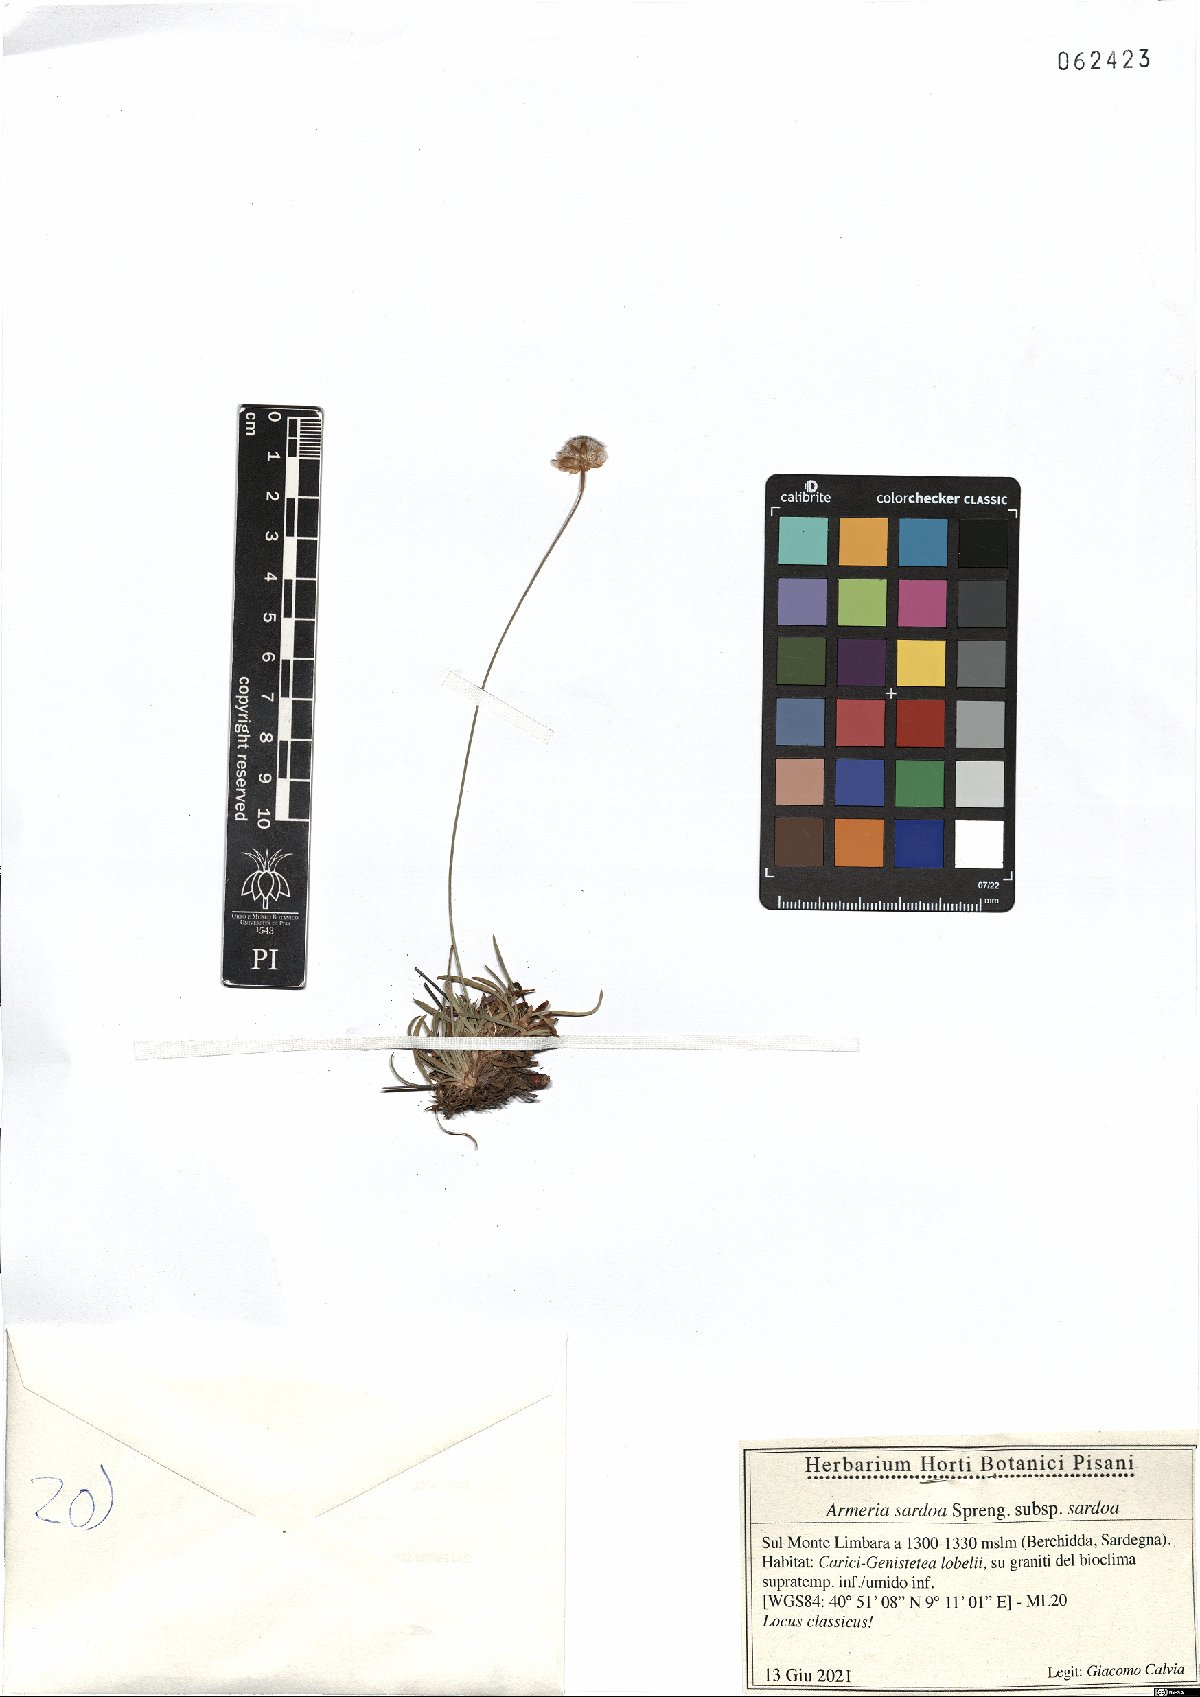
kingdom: Plantae
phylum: Tracheophyta
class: Magnoliopsida
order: Caryophyllales
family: Plumbaginaceae
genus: Armeria
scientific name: Armeria sardoa
